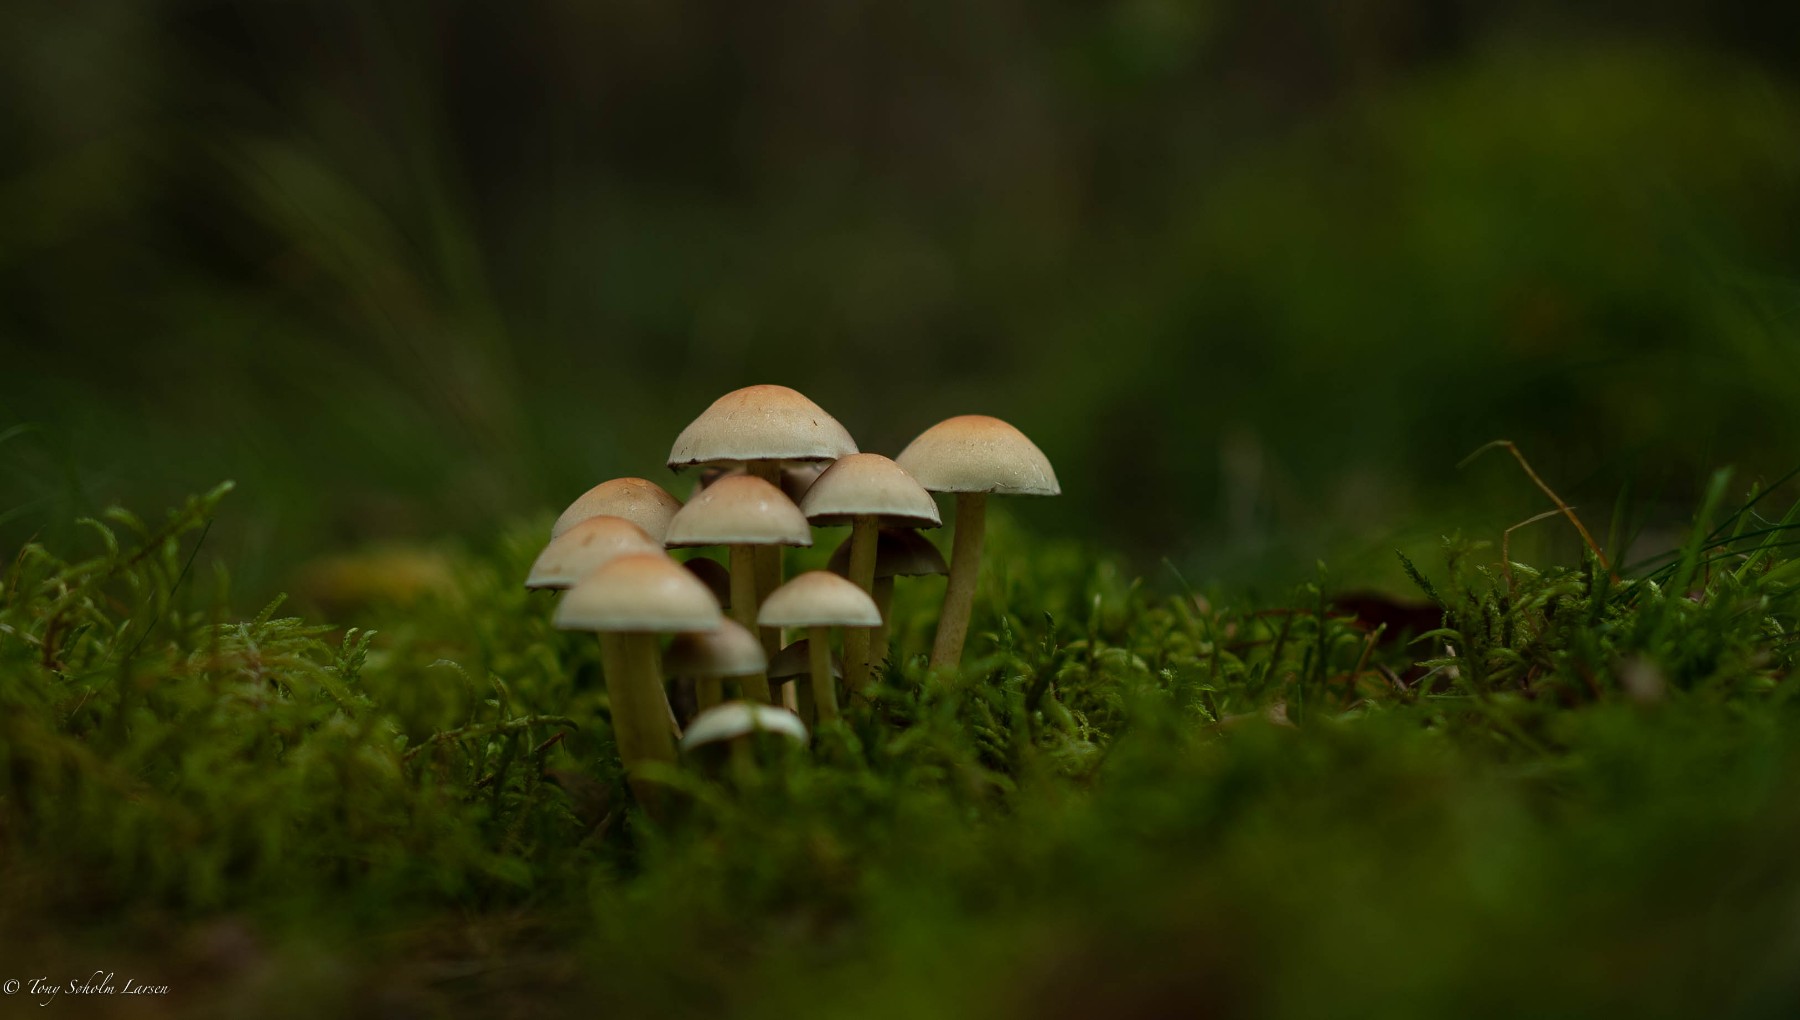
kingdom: Fungi
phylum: Basidiomycota
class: Agaricomycetes
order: Agaricales
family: Strophariaceae
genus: Hypholoma
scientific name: Hypholoma fasciculare
